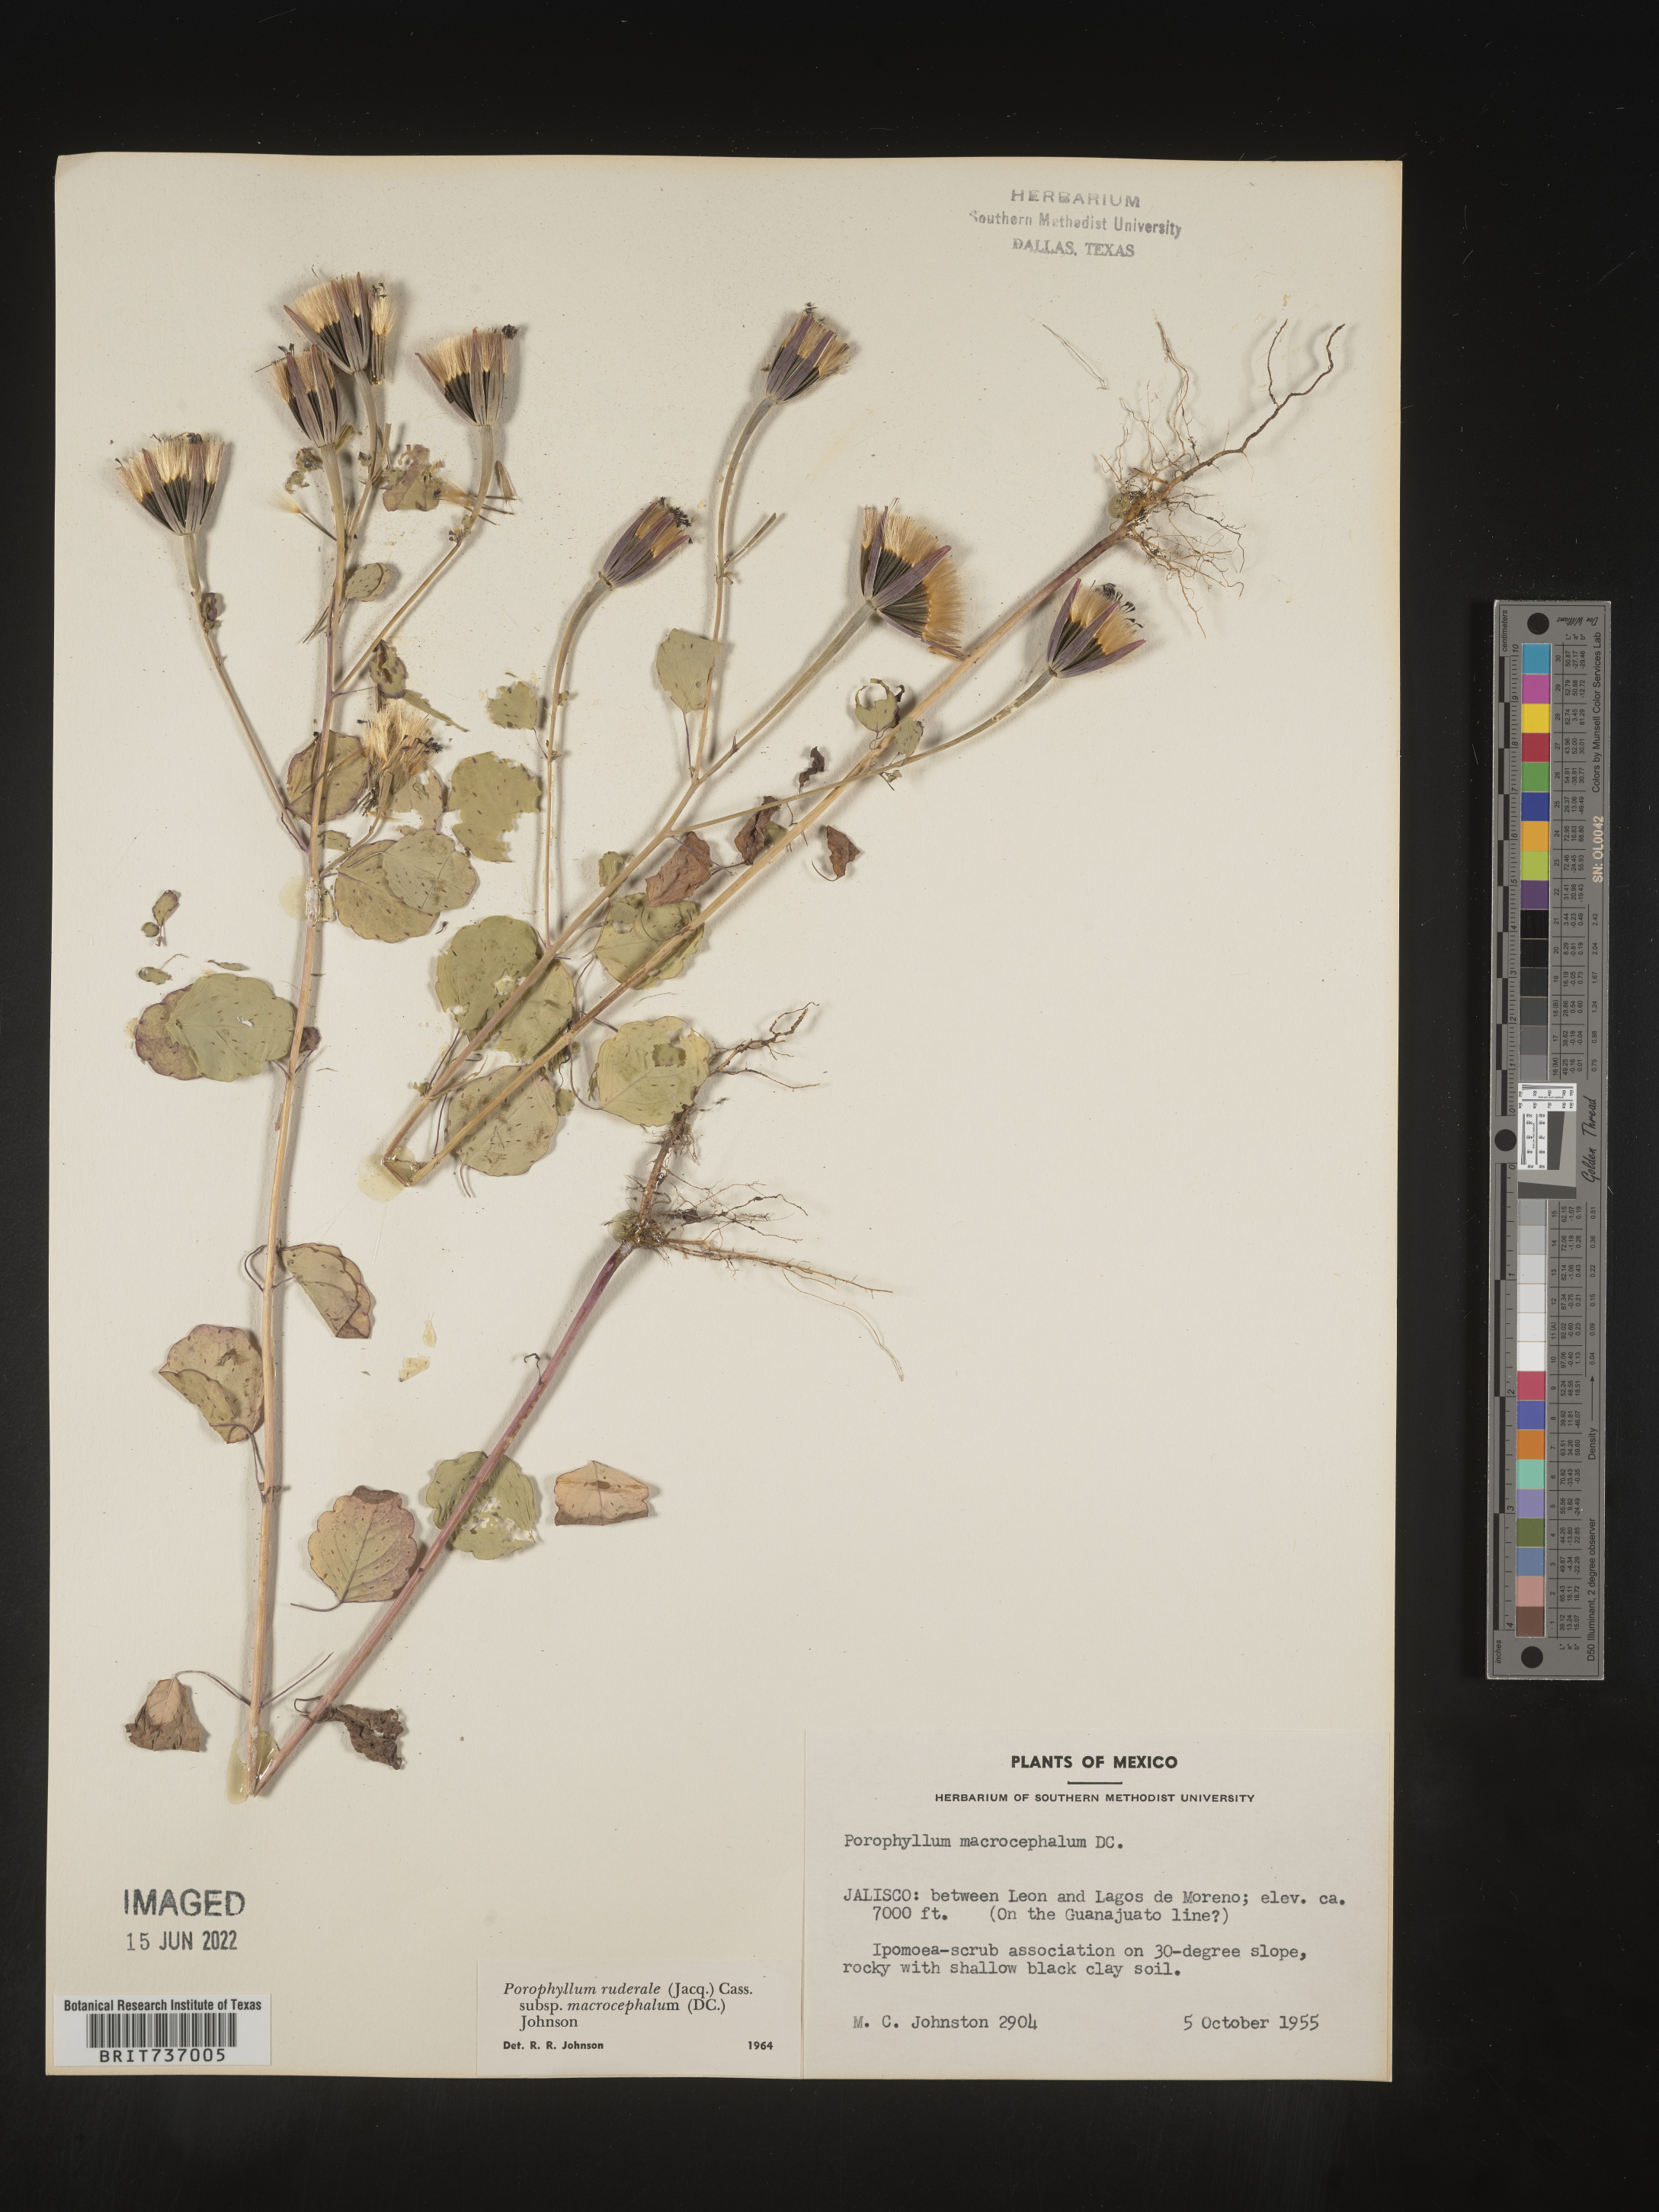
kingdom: Plantae
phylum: Tracheophyta
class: Magnoliopsida
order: Asterales
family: Asteraceae
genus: Porophyllum
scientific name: Porophyllum
